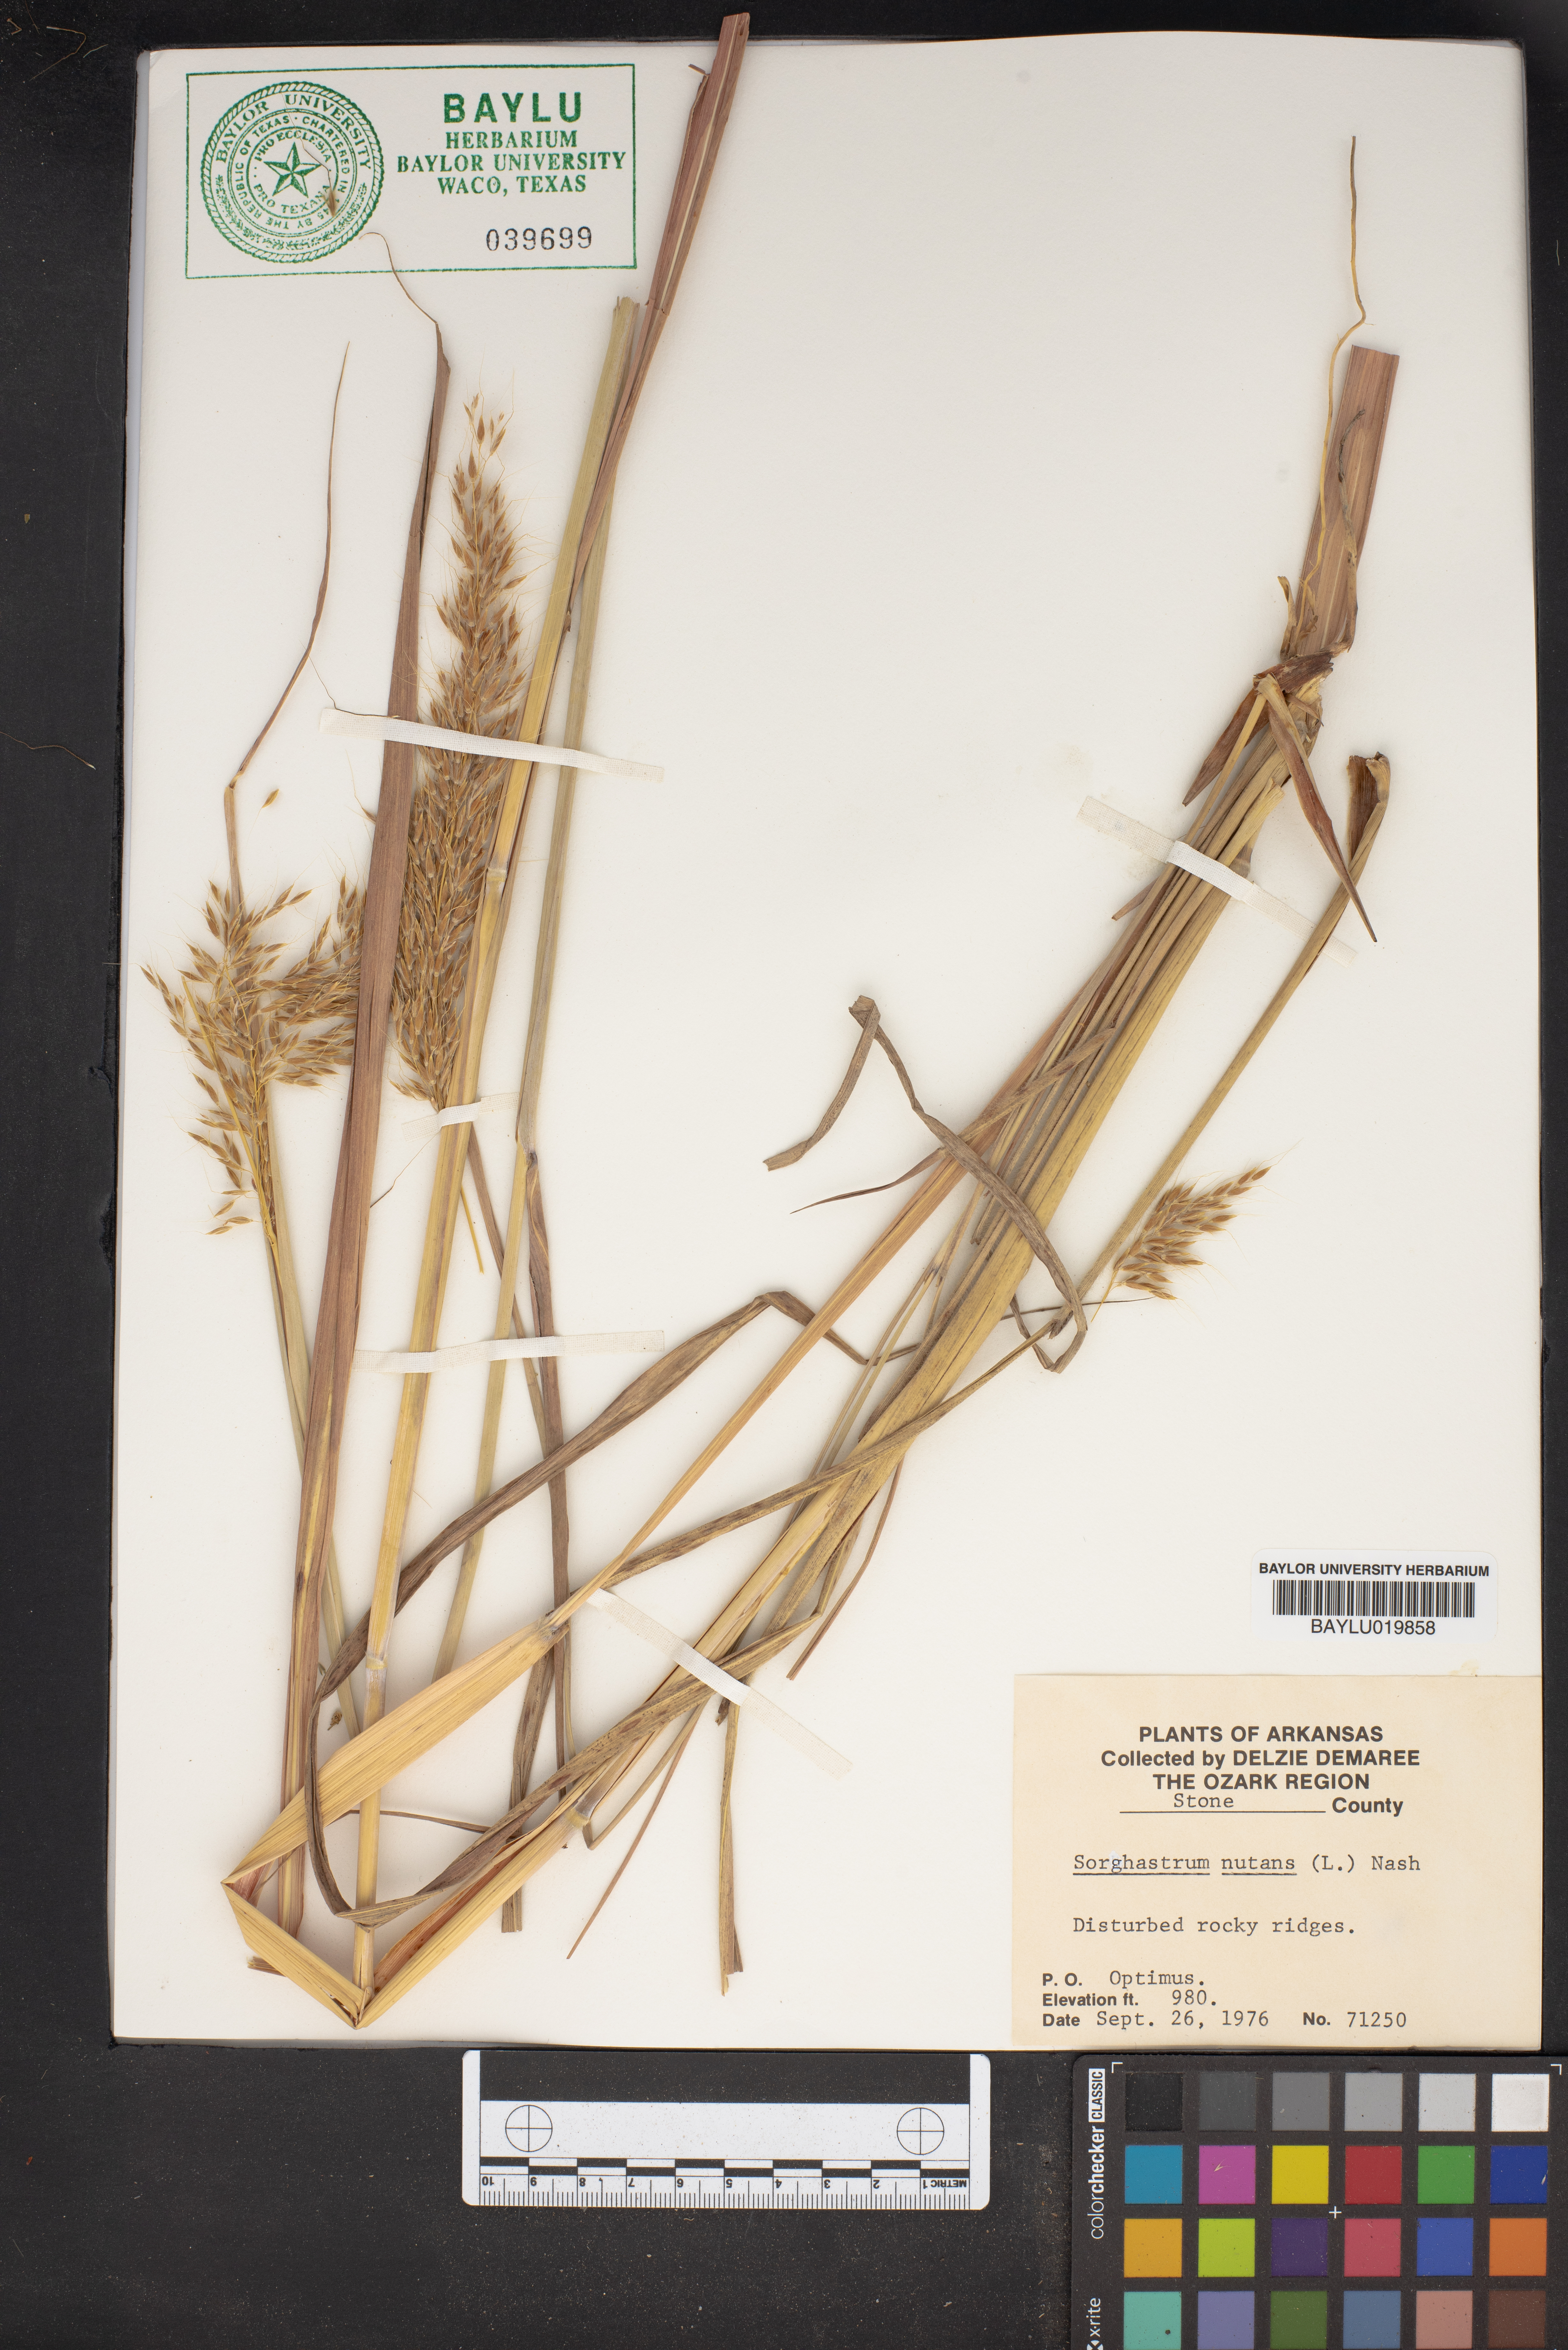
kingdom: Plantae
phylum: Tracheophyta
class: Liliopsida
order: Poales
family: Poaceae
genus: Sorghastrum
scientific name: Sorghastrum nutans
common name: Indian grass
